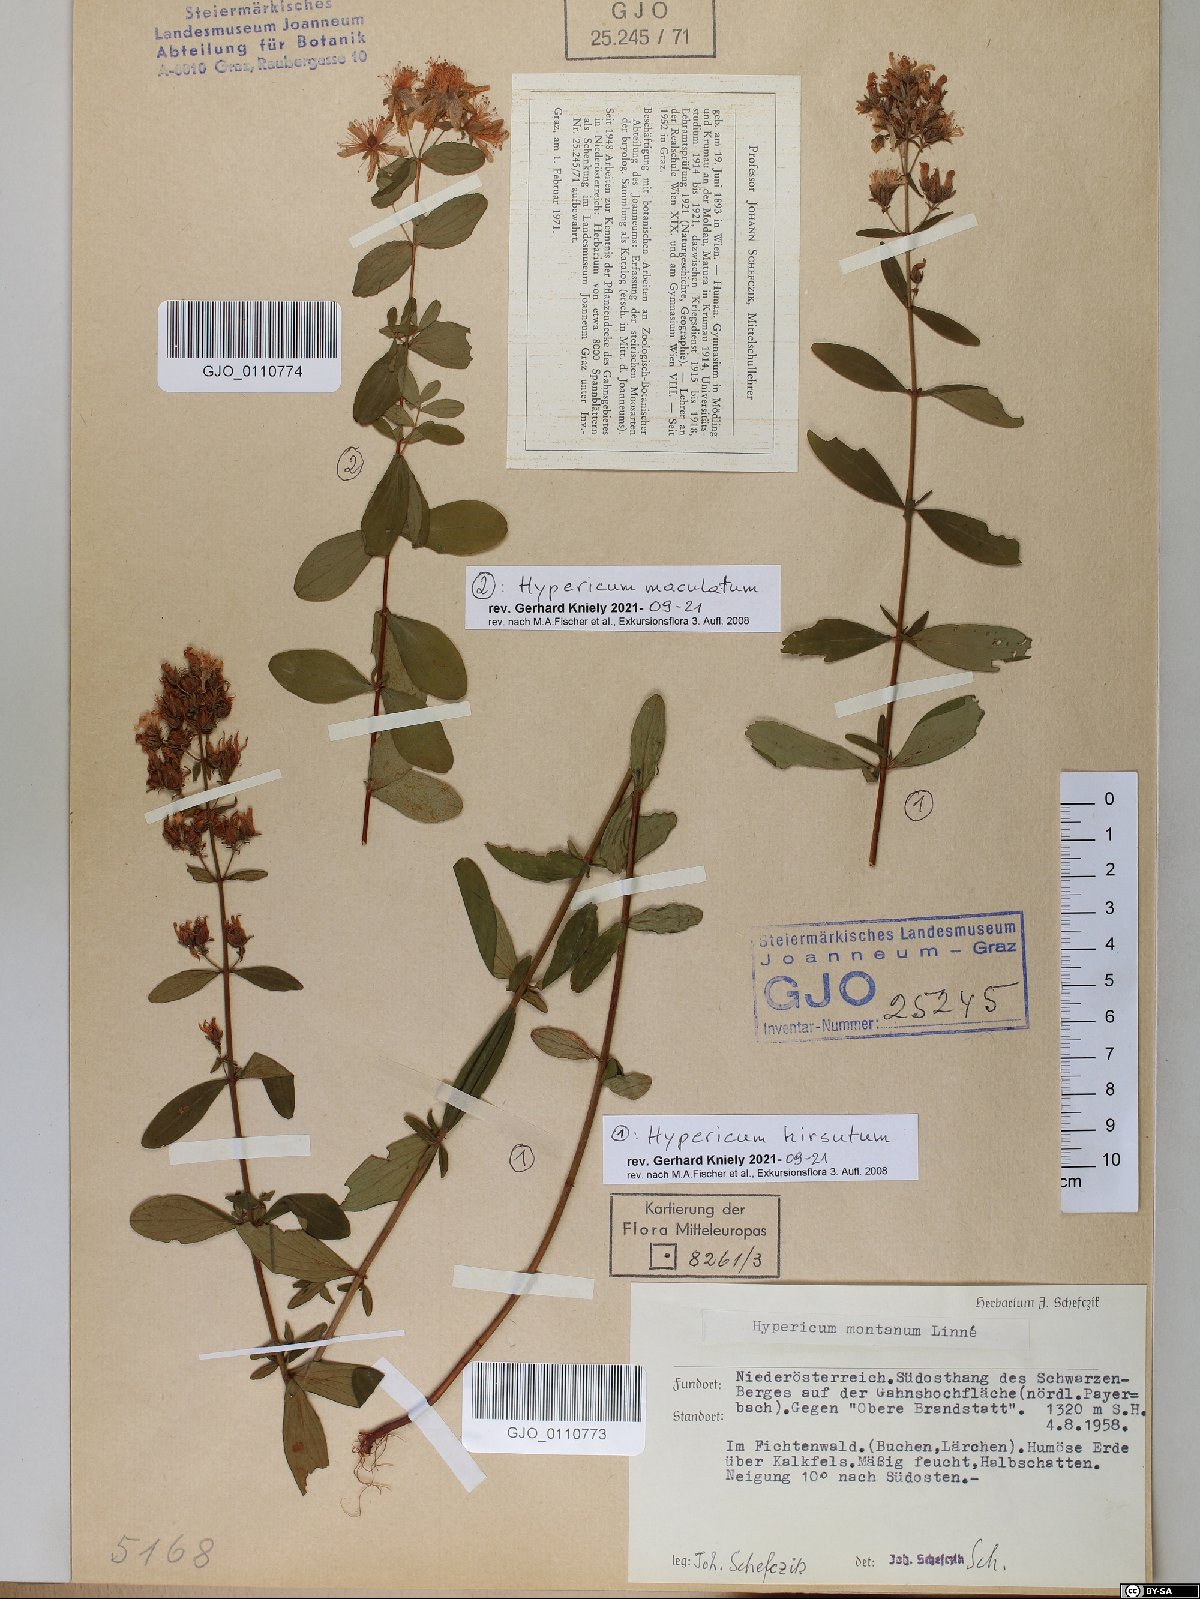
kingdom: Plantae
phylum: Tracheophyta
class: Magnoliopsida
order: Malpighiales
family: Hypericaceae
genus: Hypericum
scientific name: Hypericum hirsutum
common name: Hairy st. john's-wort
